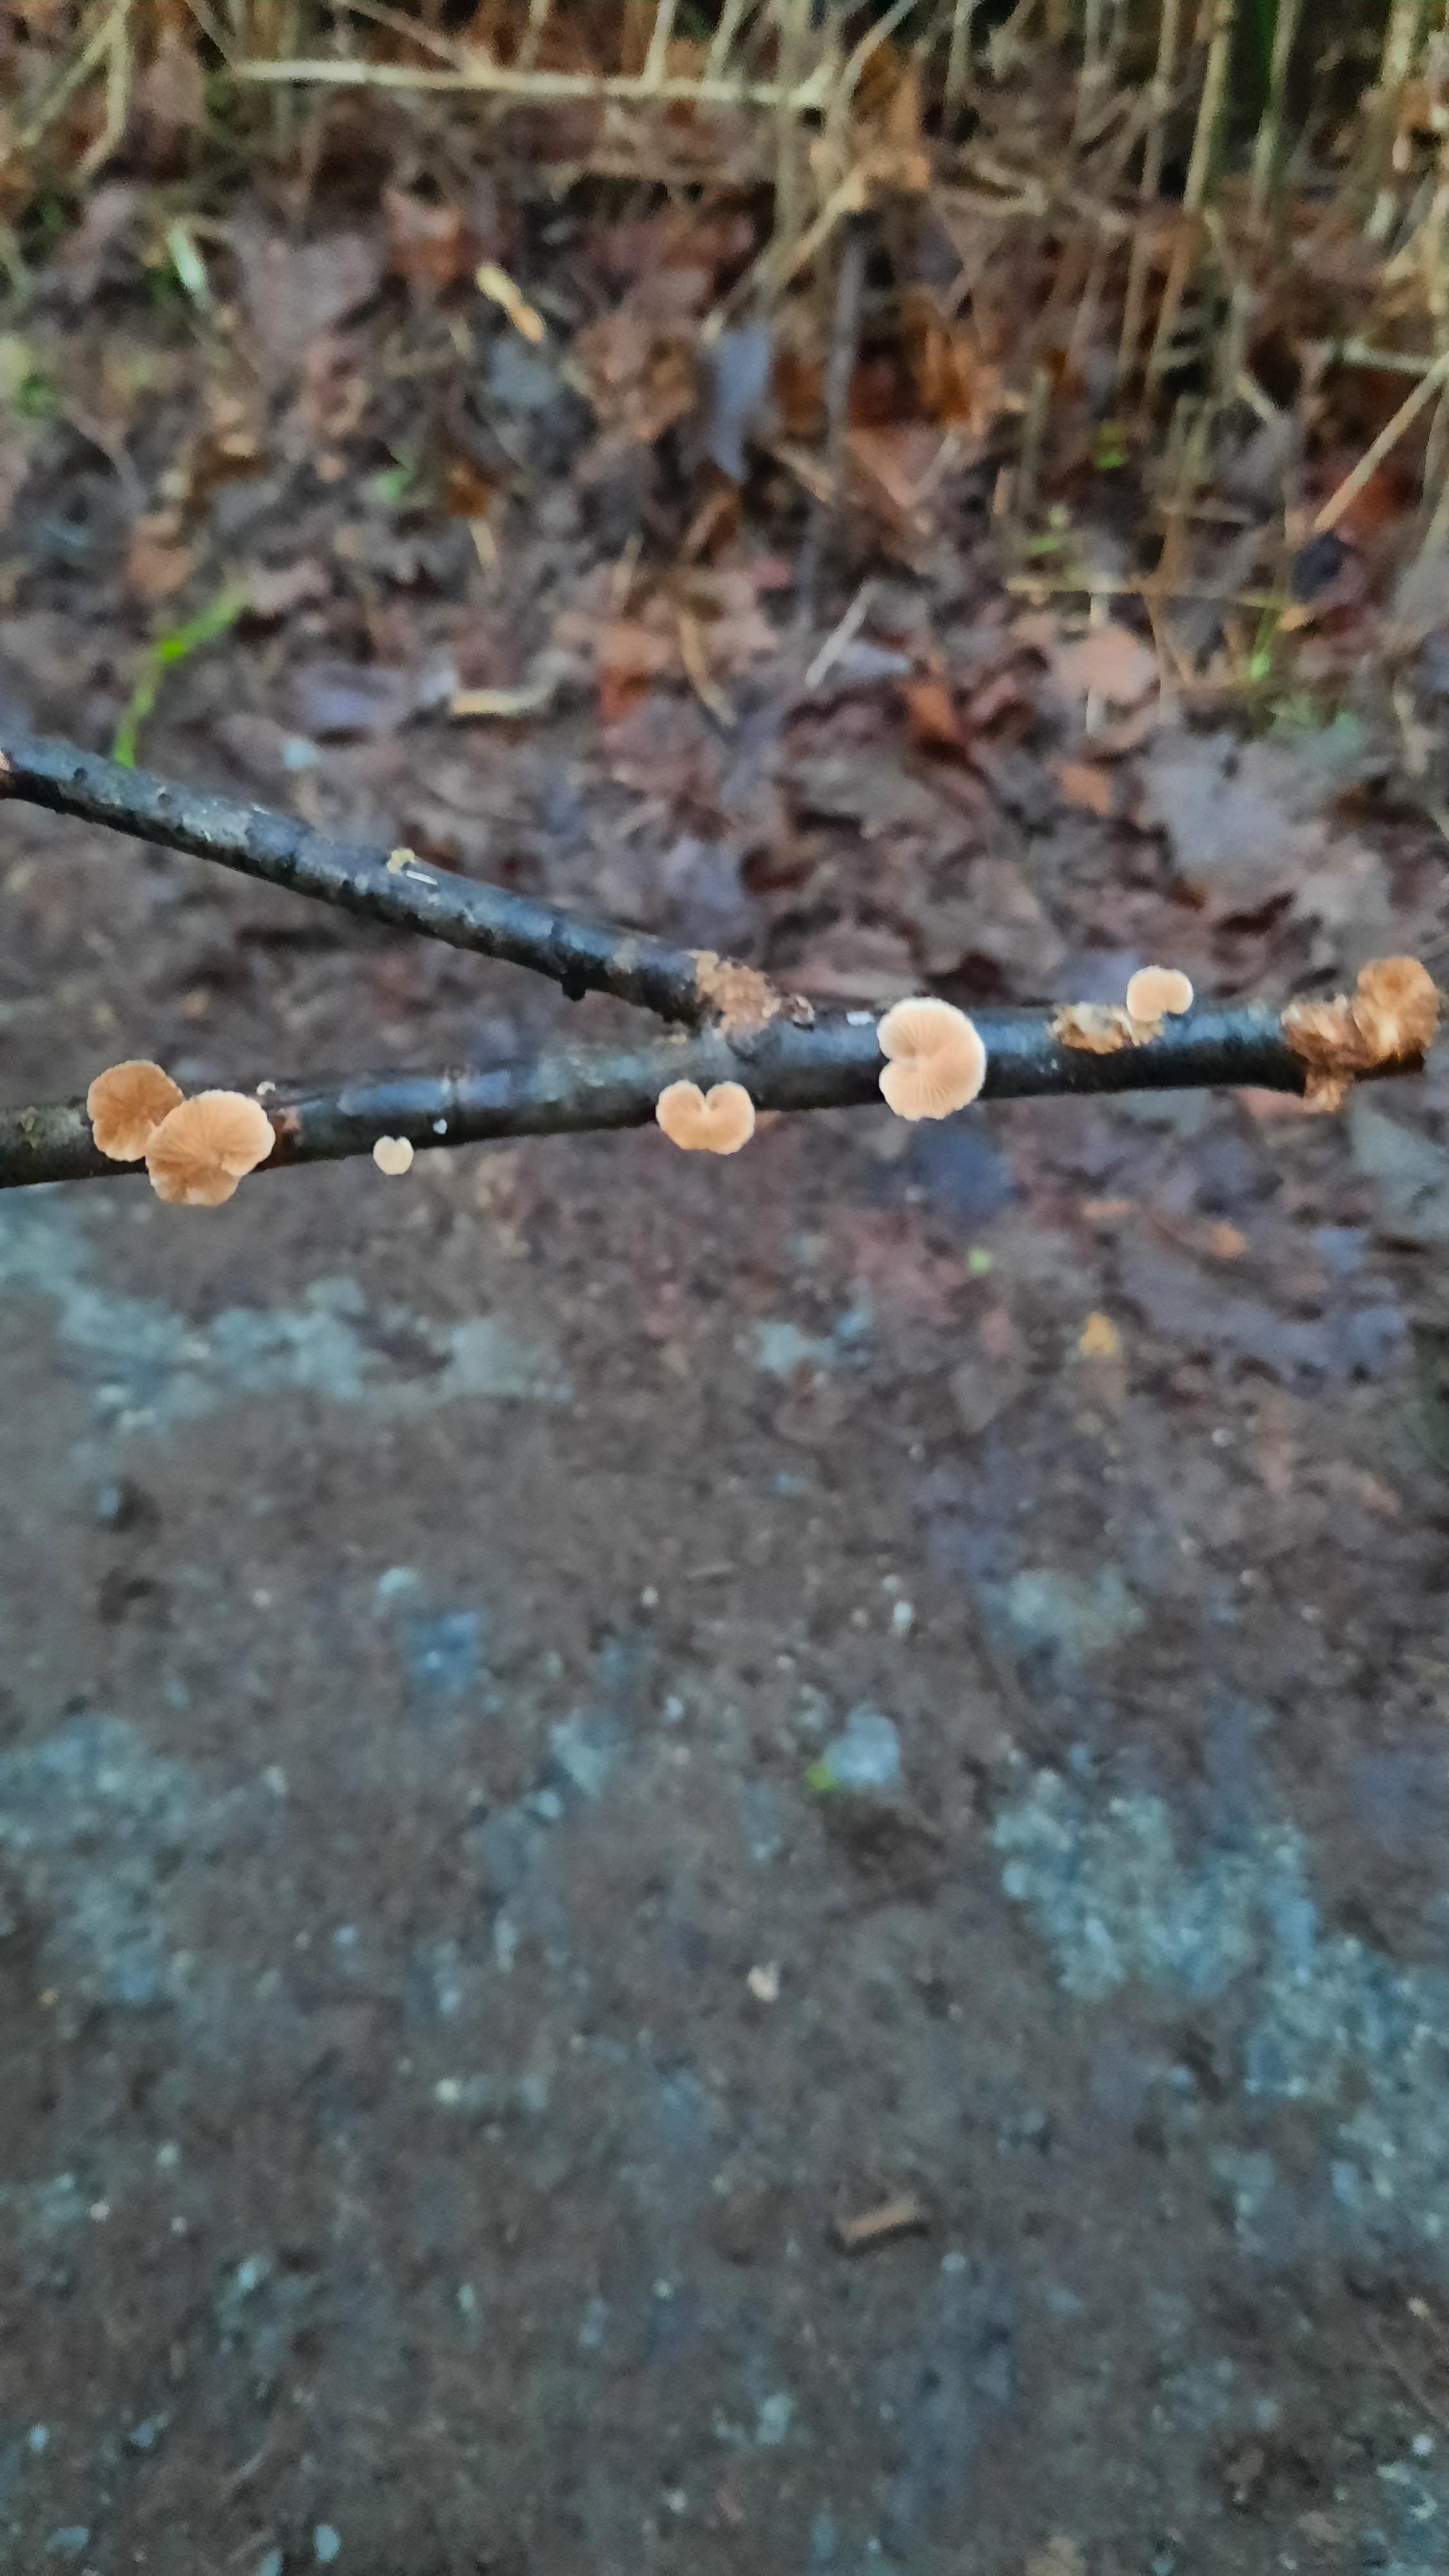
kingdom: Fungi
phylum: Basidiomycota
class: Agaricomycetes
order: Agaricales
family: Crepidotaceae
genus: Crepidotus
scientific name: Crepidotus
